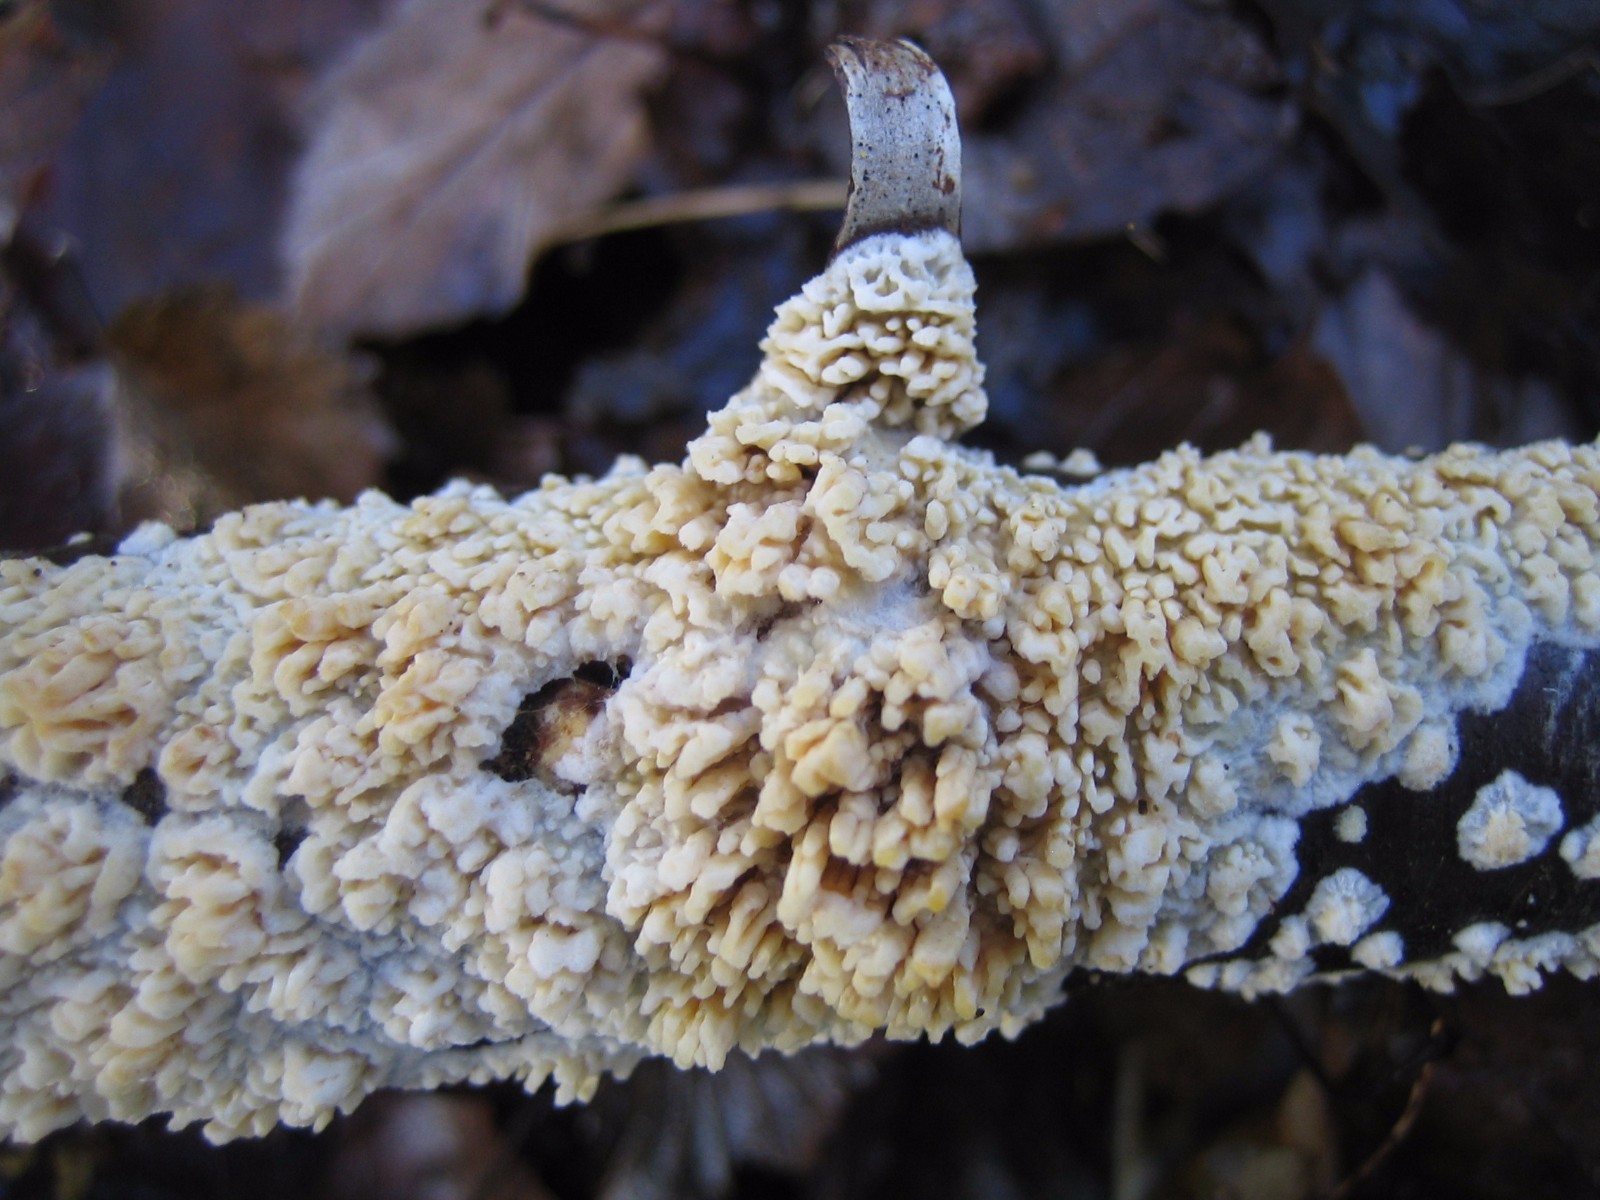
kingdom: Fungi
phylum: Basidiomycota
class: Agaricomycetes
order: Hymenochaetales
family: Schizoporaceae
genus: Xylodon
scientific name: Xylodon radula
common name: grovtandet kalkskind
